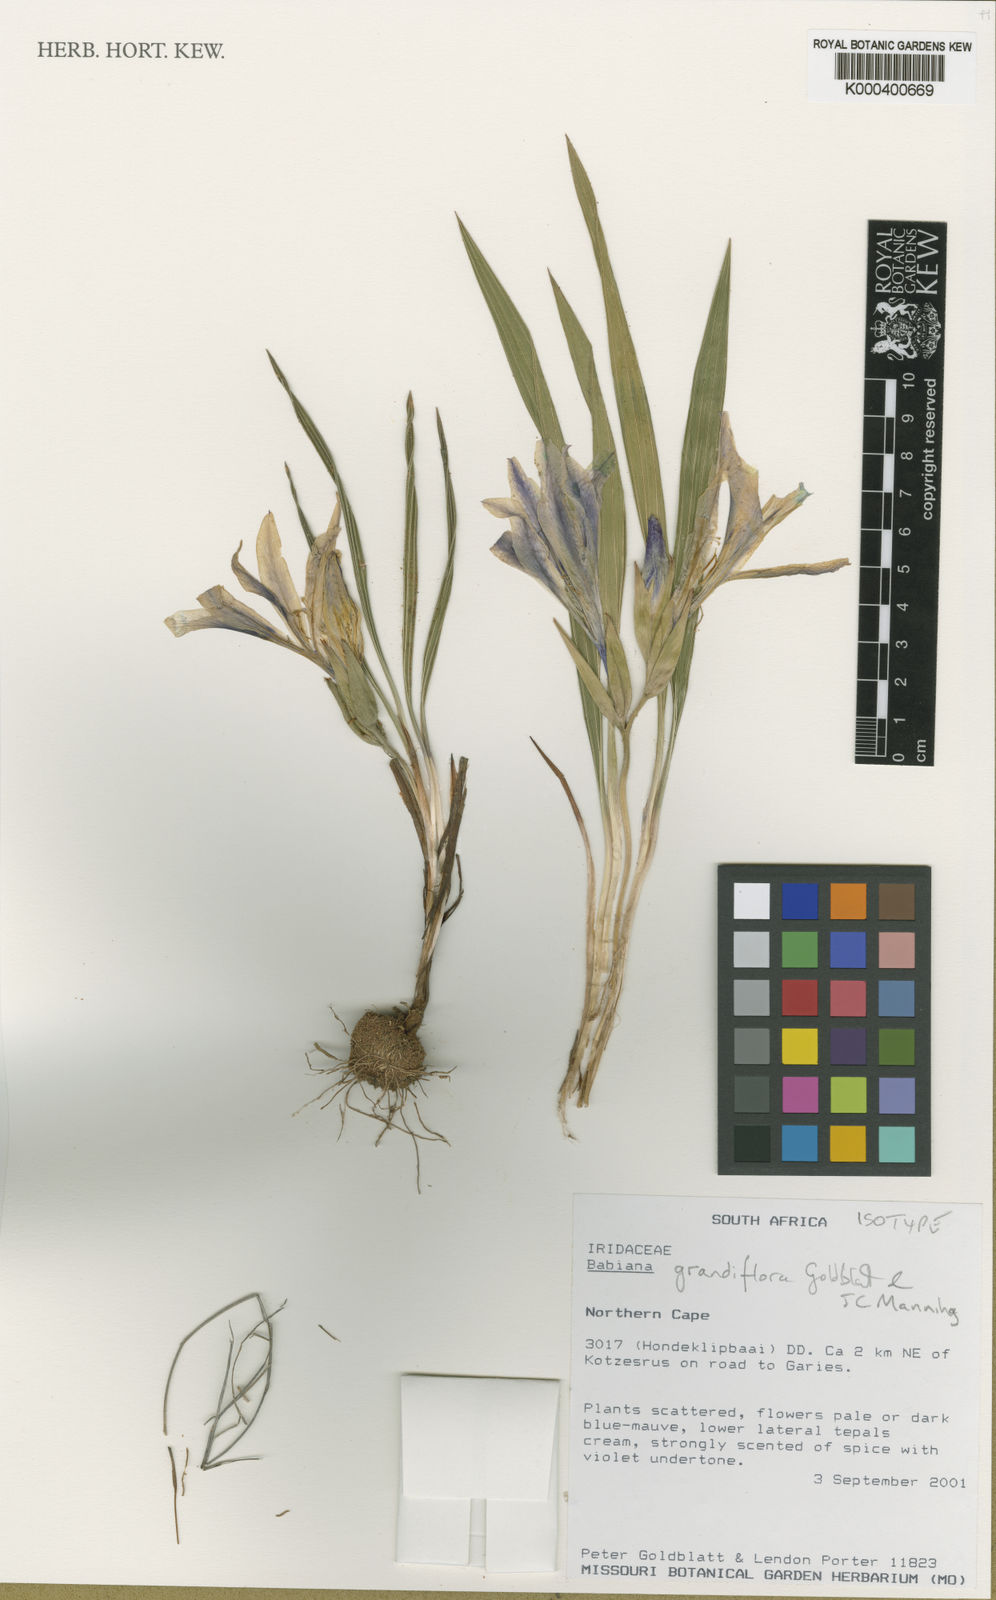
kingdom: Plantae
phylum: Tracheophyta
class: Liliopsida
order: Asparagales
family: Iridaceae
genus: Babiana
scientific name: Babiana grandiflora
